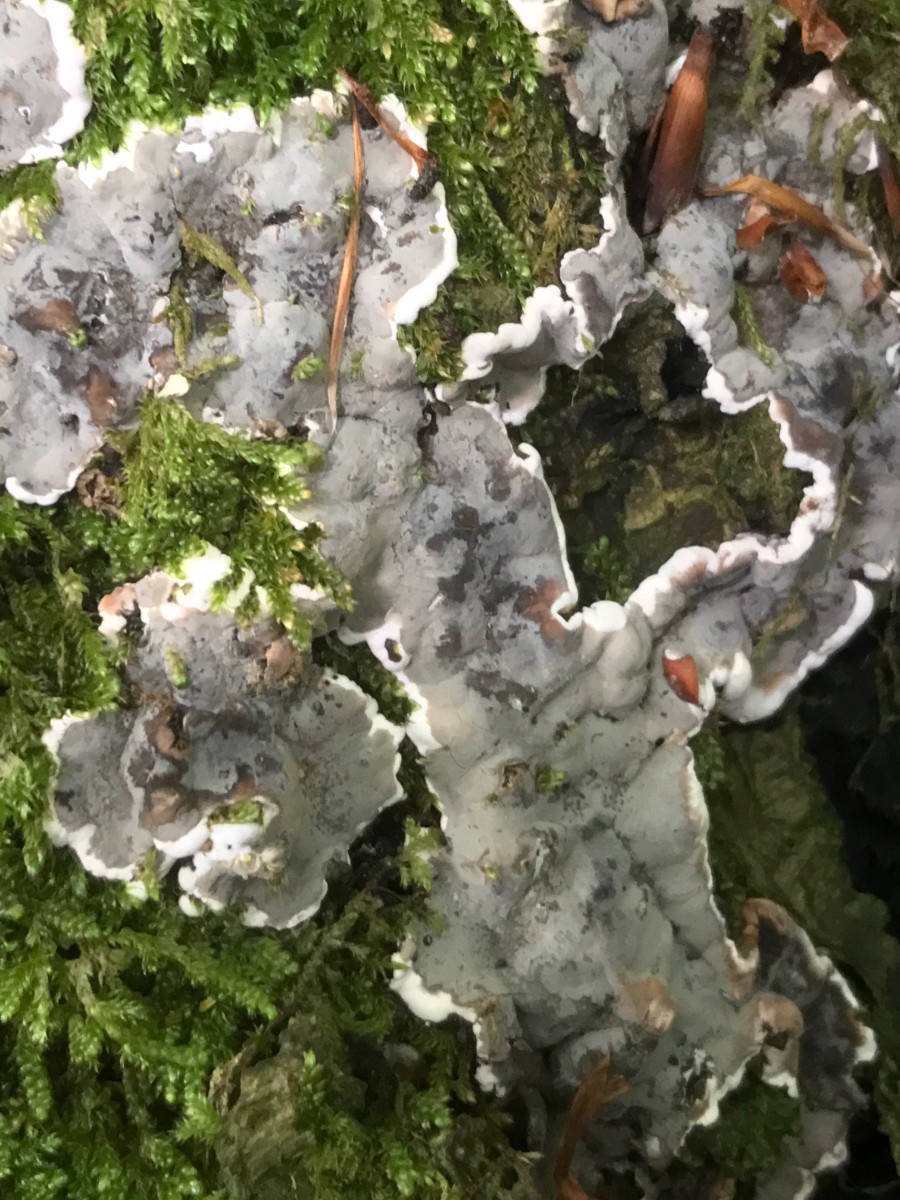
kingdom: Fungi
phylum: Ascomycota
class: Sordariomycetes
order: Xylariales
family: Xylariaceae
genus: Kretzschmaria
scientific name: Kretzschmaria deusta
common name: stor kulsvamp
